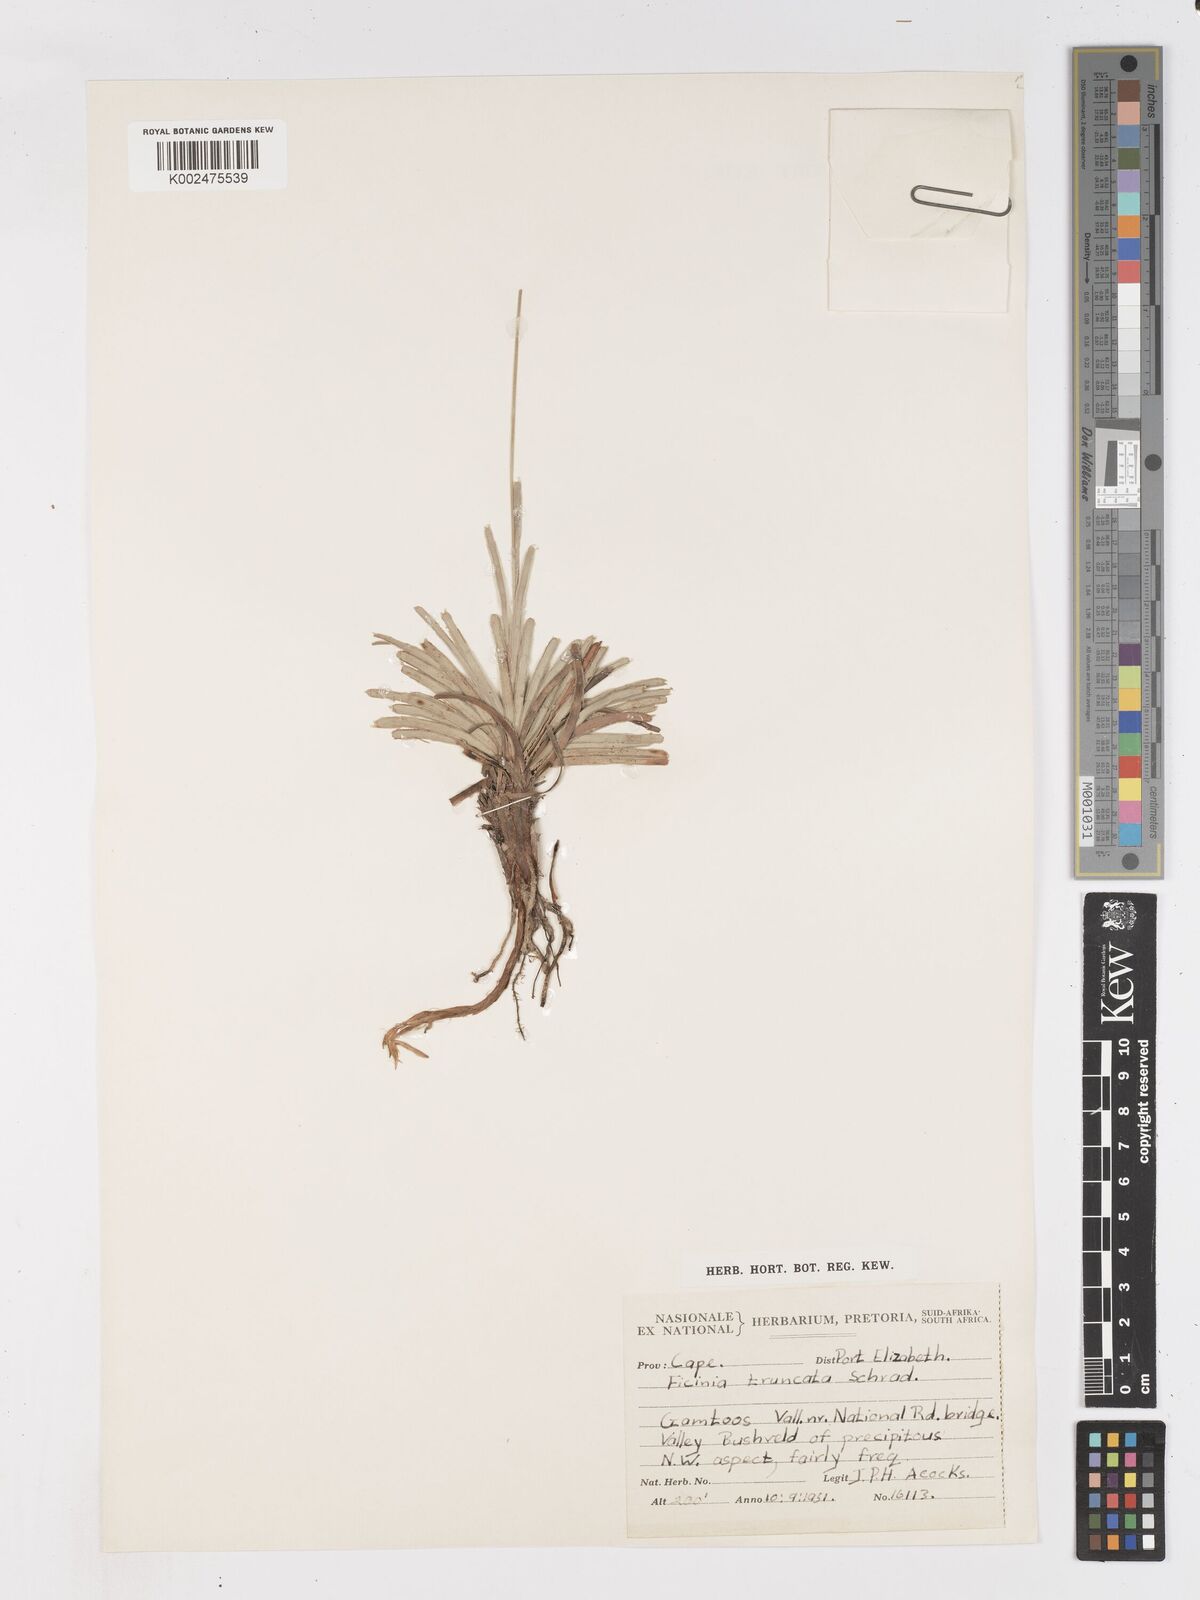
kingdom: Plantae
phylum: Tracheophyta
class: Liliopsida
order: Poales
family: Cyperaceae
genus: Ficinia
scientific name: Ficinia truncata
